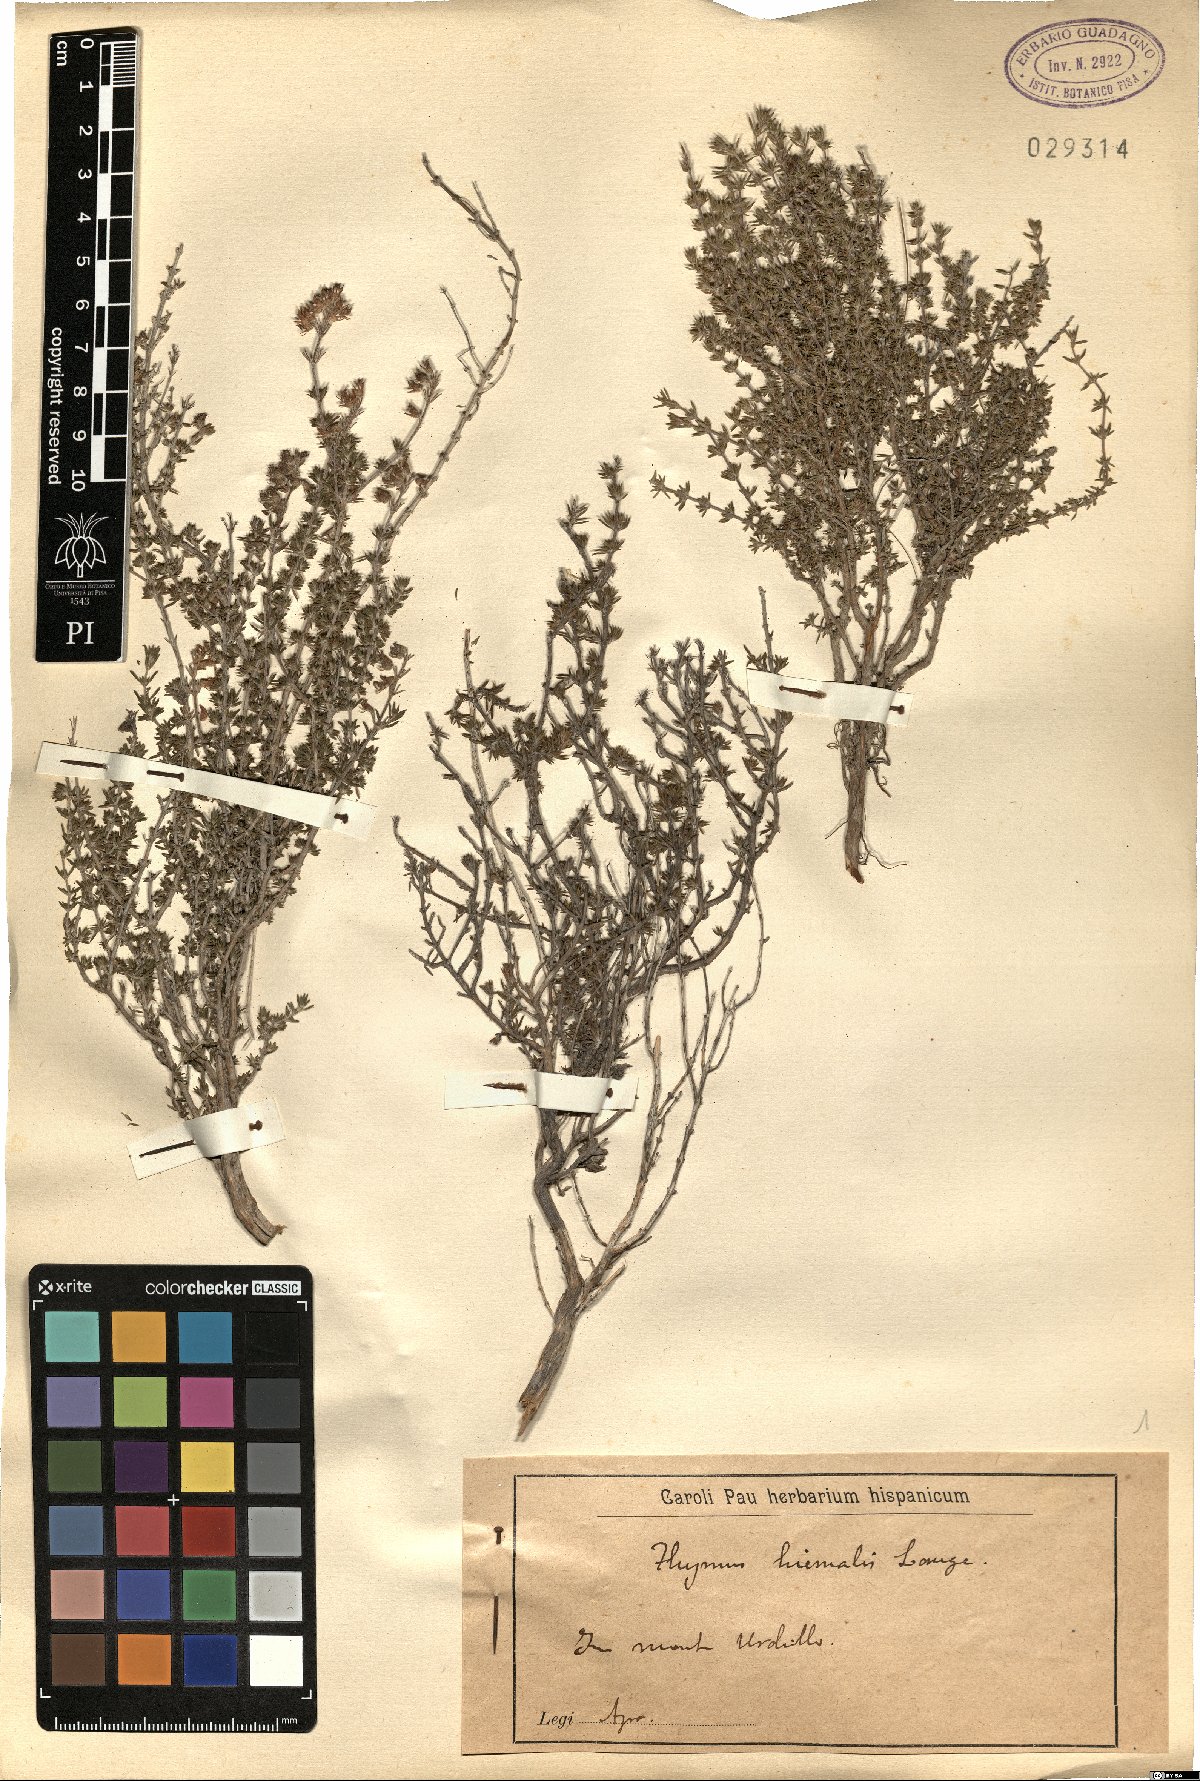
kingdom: Plantae
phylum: Tracheophyta
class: Magnoliopsida
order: Lamiales
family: Lamiaceae
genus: Thymus
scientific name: Thymus hyemalis
